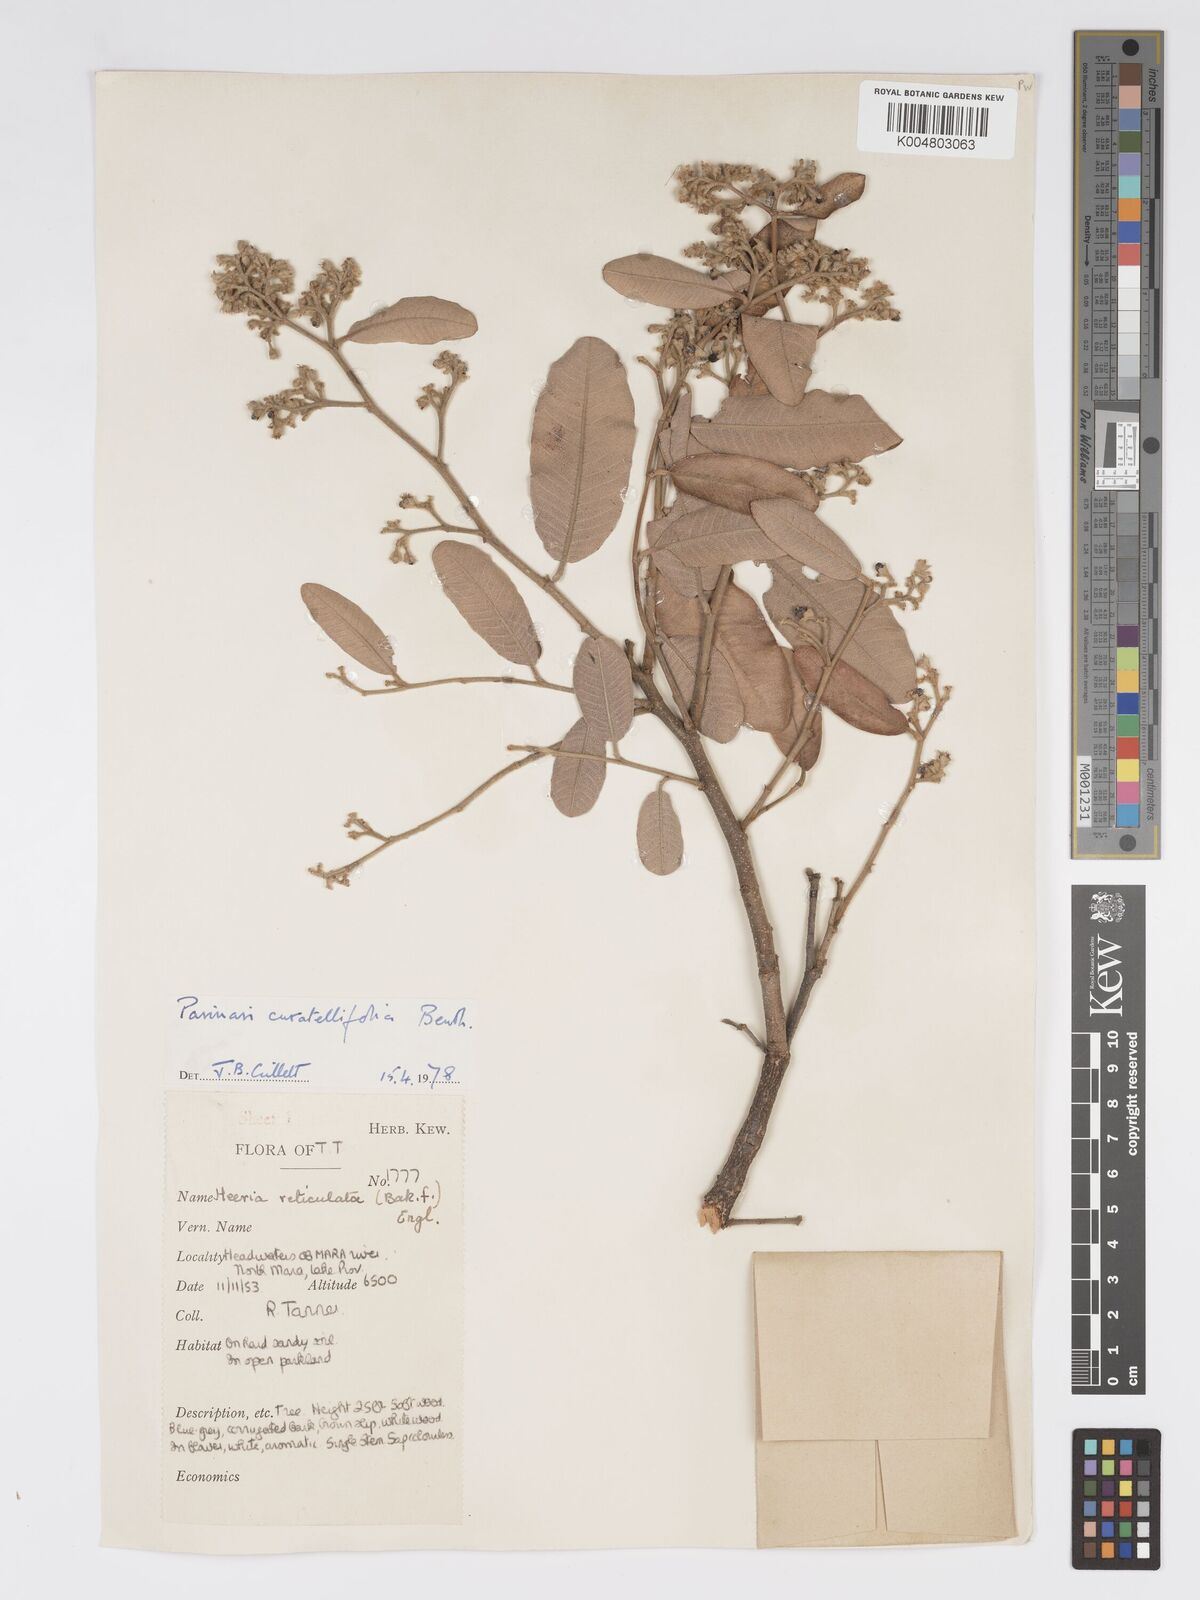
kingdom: Plantae
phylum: Tracheophyta
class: Magnoliopsida
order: Malpighiales
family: Chrysobalanaceae
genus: Parinari
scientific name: Parinari curatellifolia
